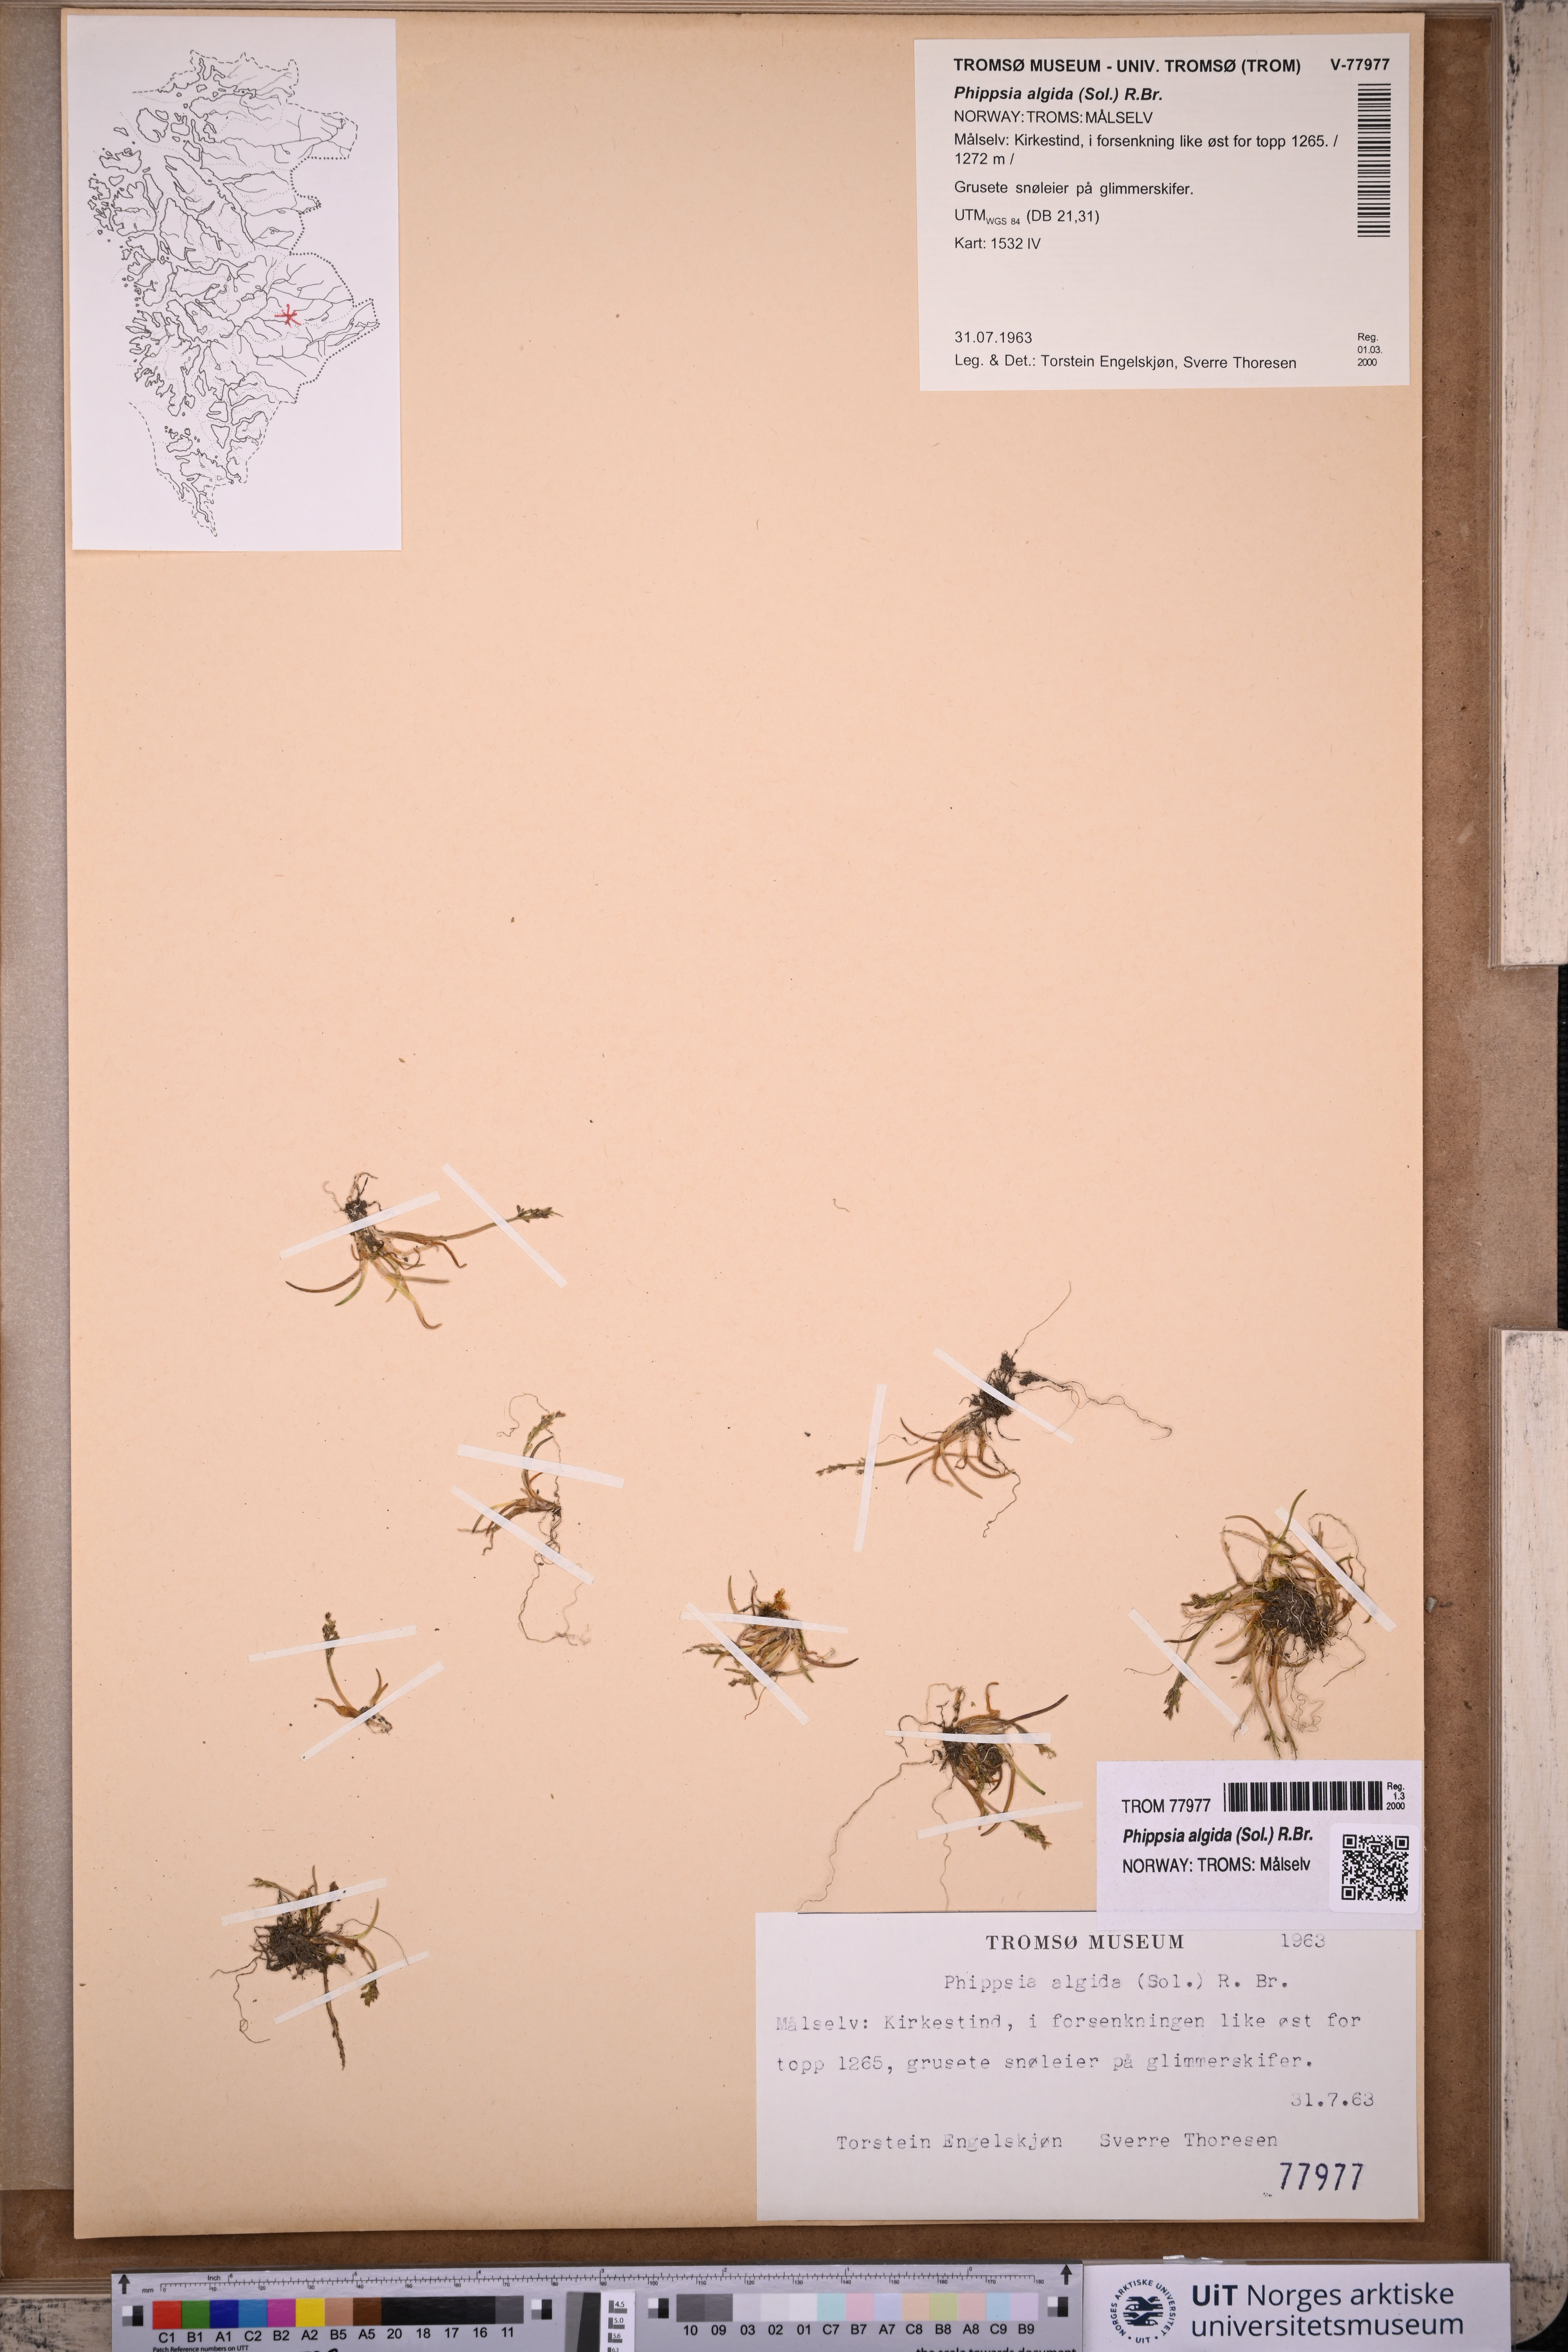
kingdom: Plantae
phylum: Tracheophyta
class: Liliopsida
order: Poales
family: Poaceae
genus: Phippsia
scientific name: Phippsia algida
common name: Ice grass
